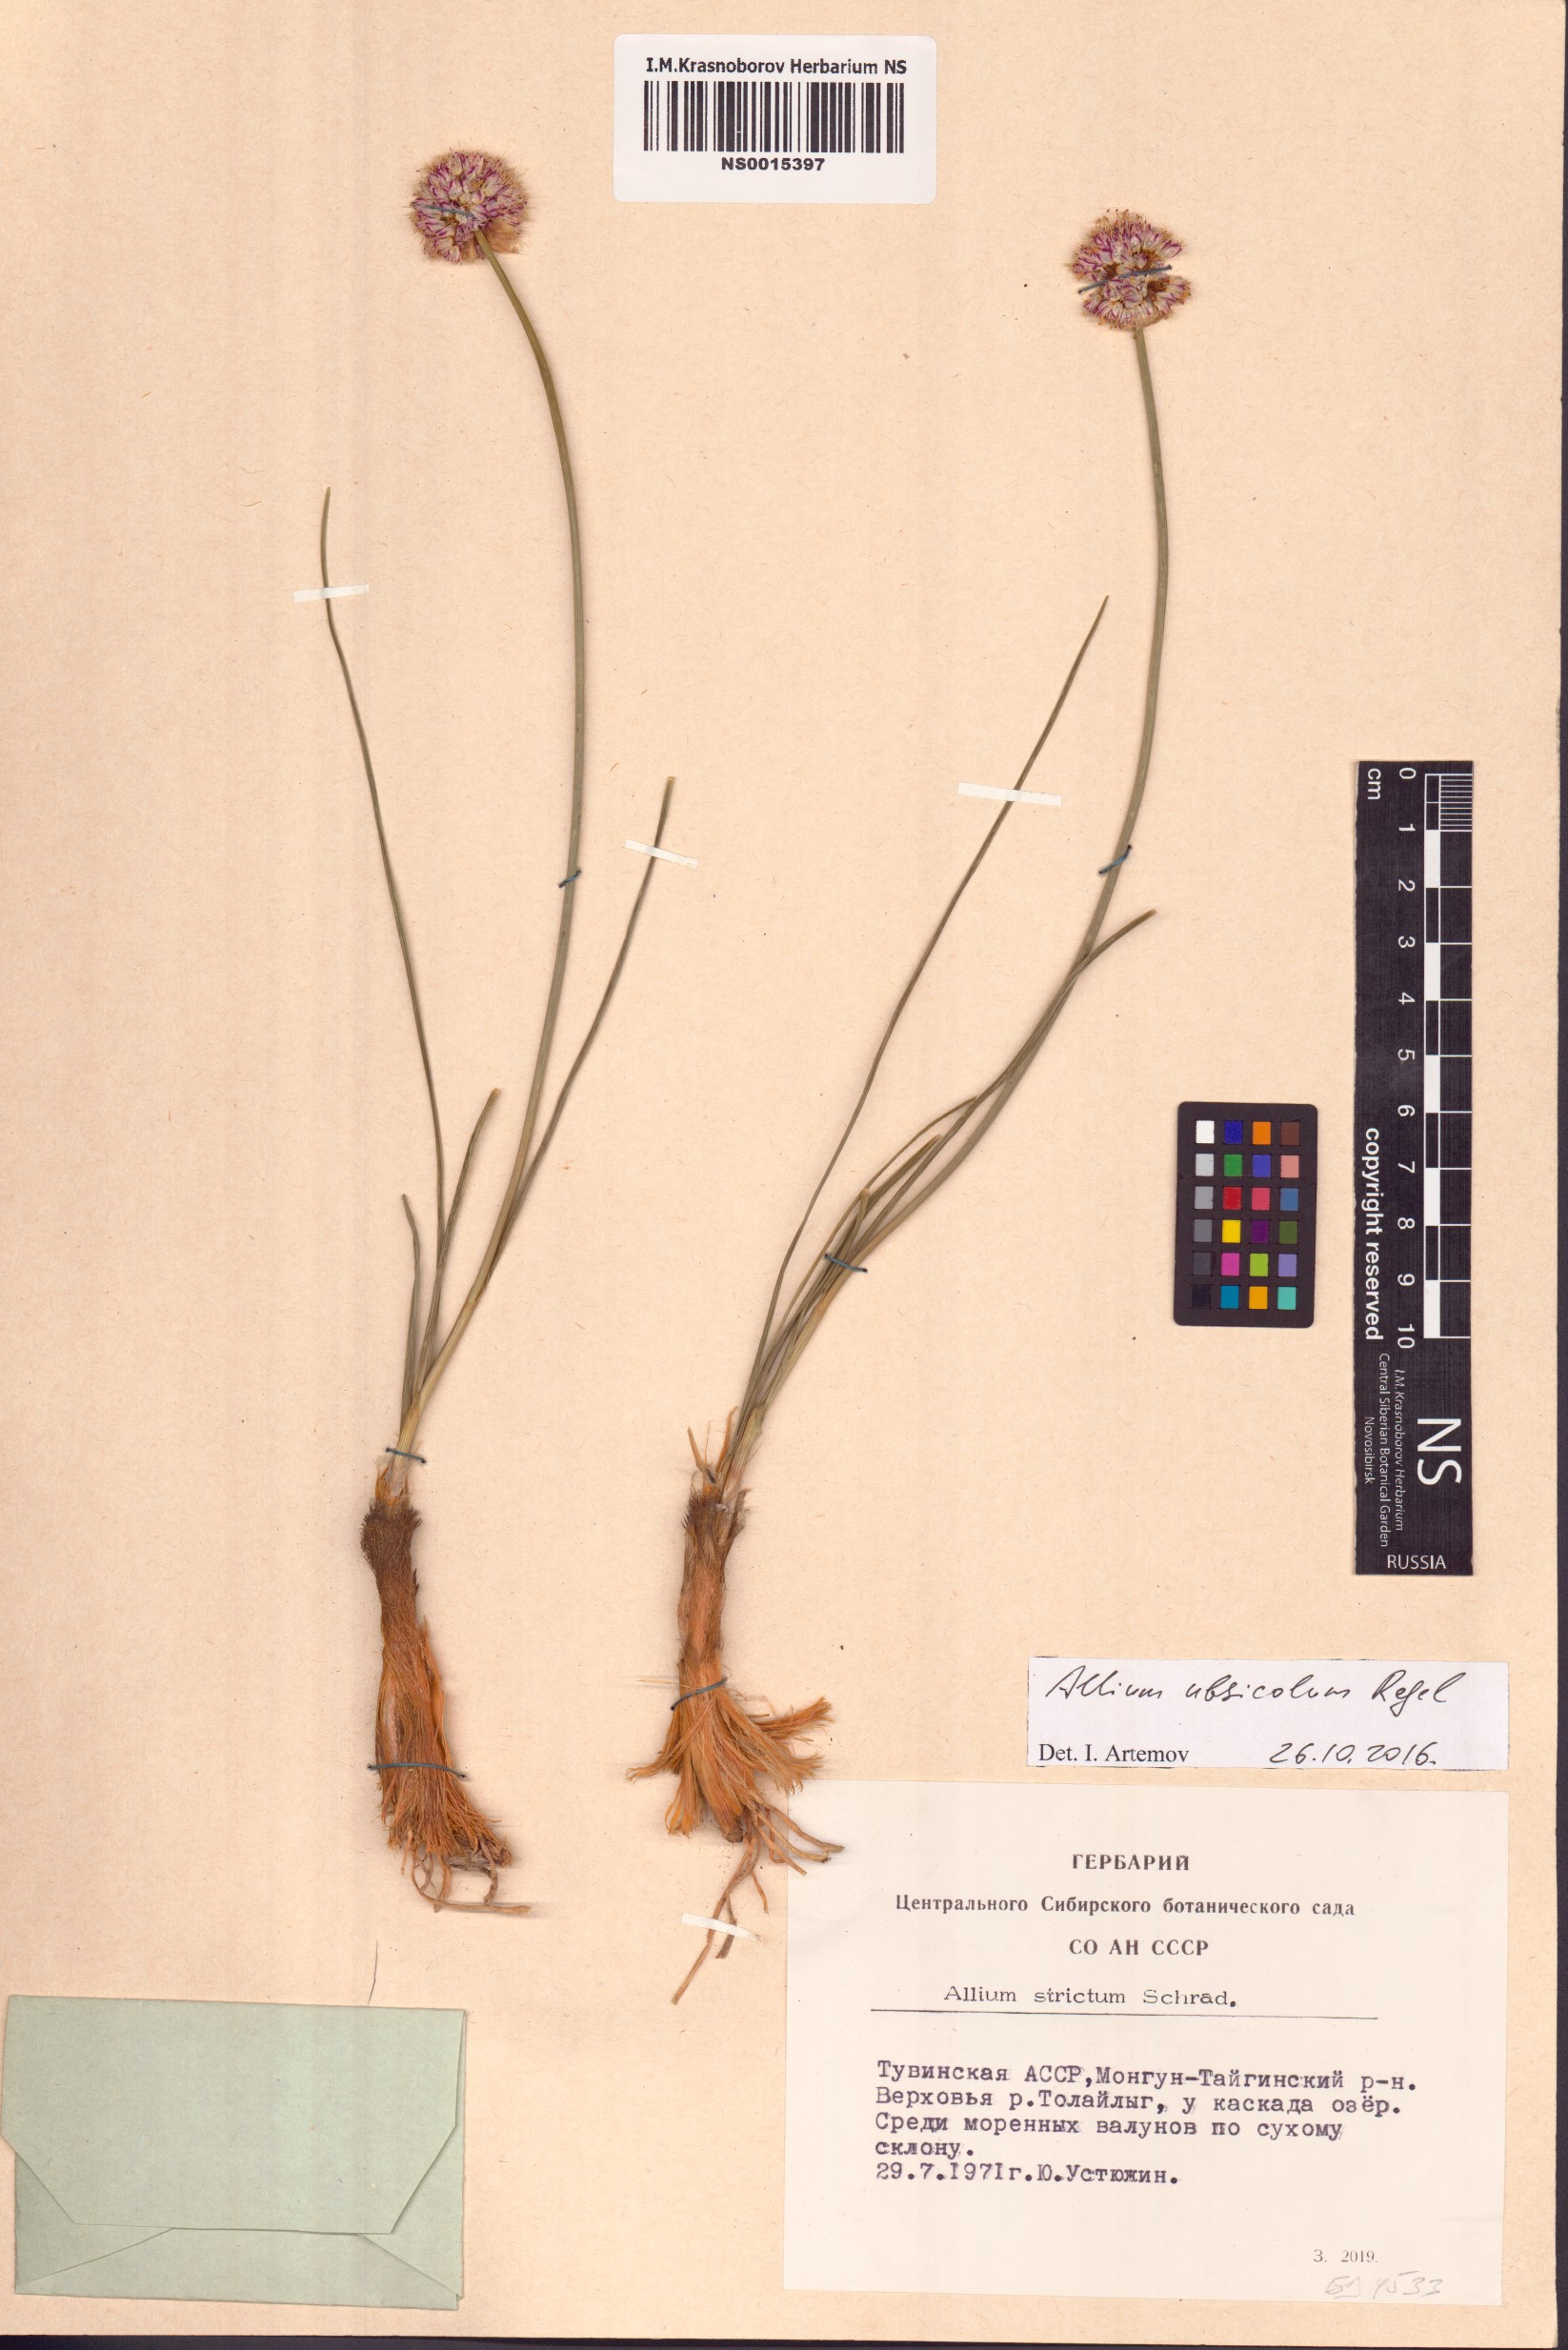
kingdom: Plantae
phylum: Tracheophyta
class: Liliopsida
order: Asparagales
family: Amaryllidaceae
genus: Allium
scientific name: Allium ubsicola
